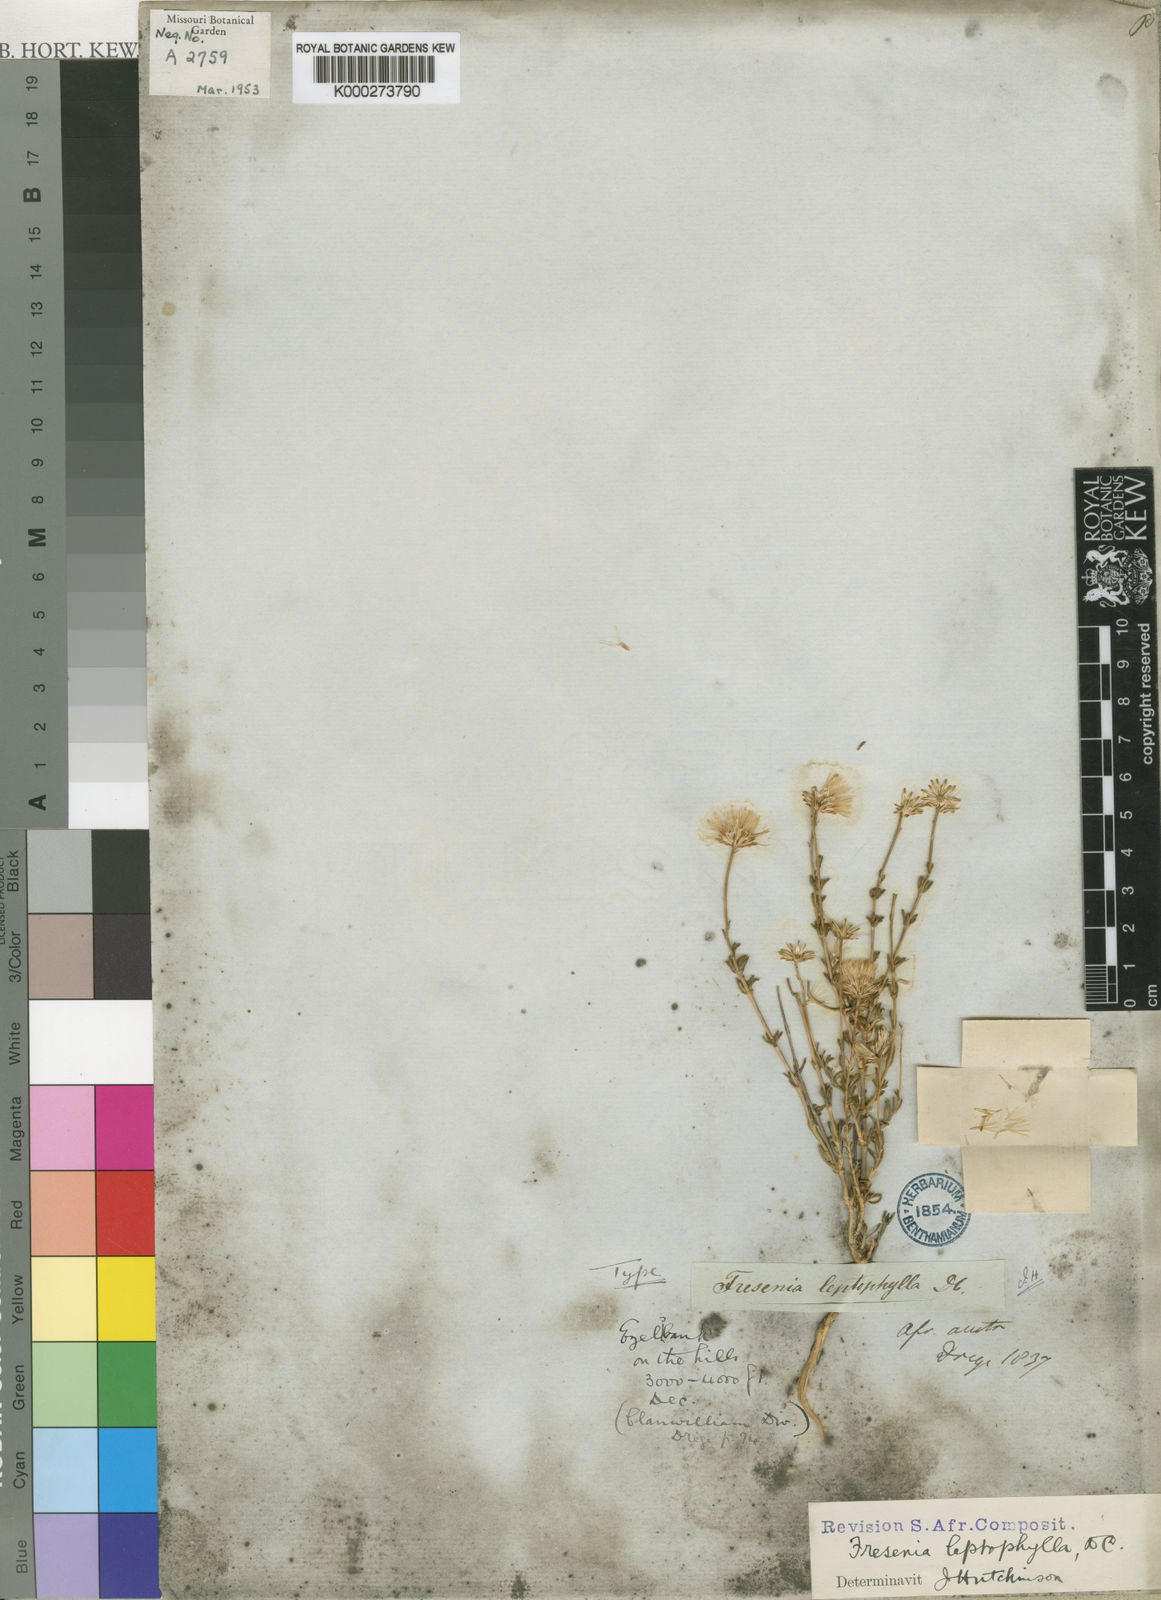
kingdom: Plantae
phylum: Tracheophyta
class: Magnoliopsida
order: Asterales
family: Asteraceae
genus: Felicia
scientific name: Felicia
